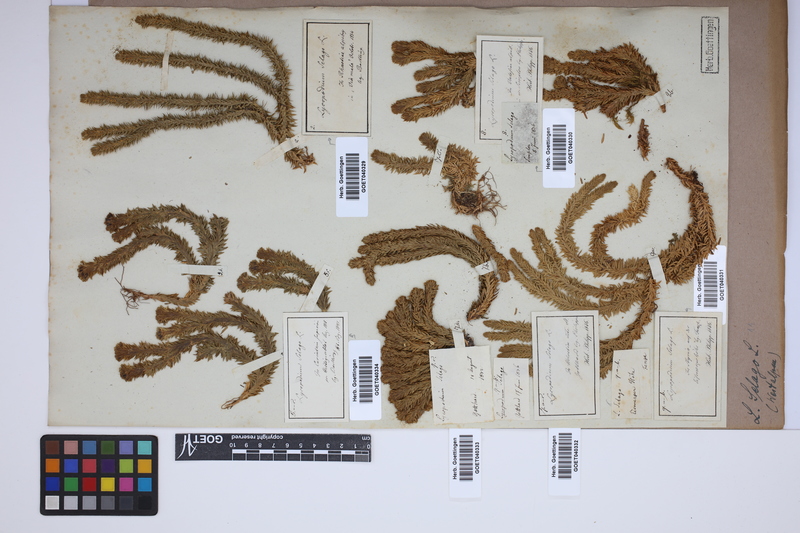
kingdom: Plantae
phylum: Tracheophyta
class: Lycopodiopsida
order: Lycopodiales
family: Lycopodiaceae
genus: Huperzia
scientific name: Huperzia selago
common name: Northern firmoss
